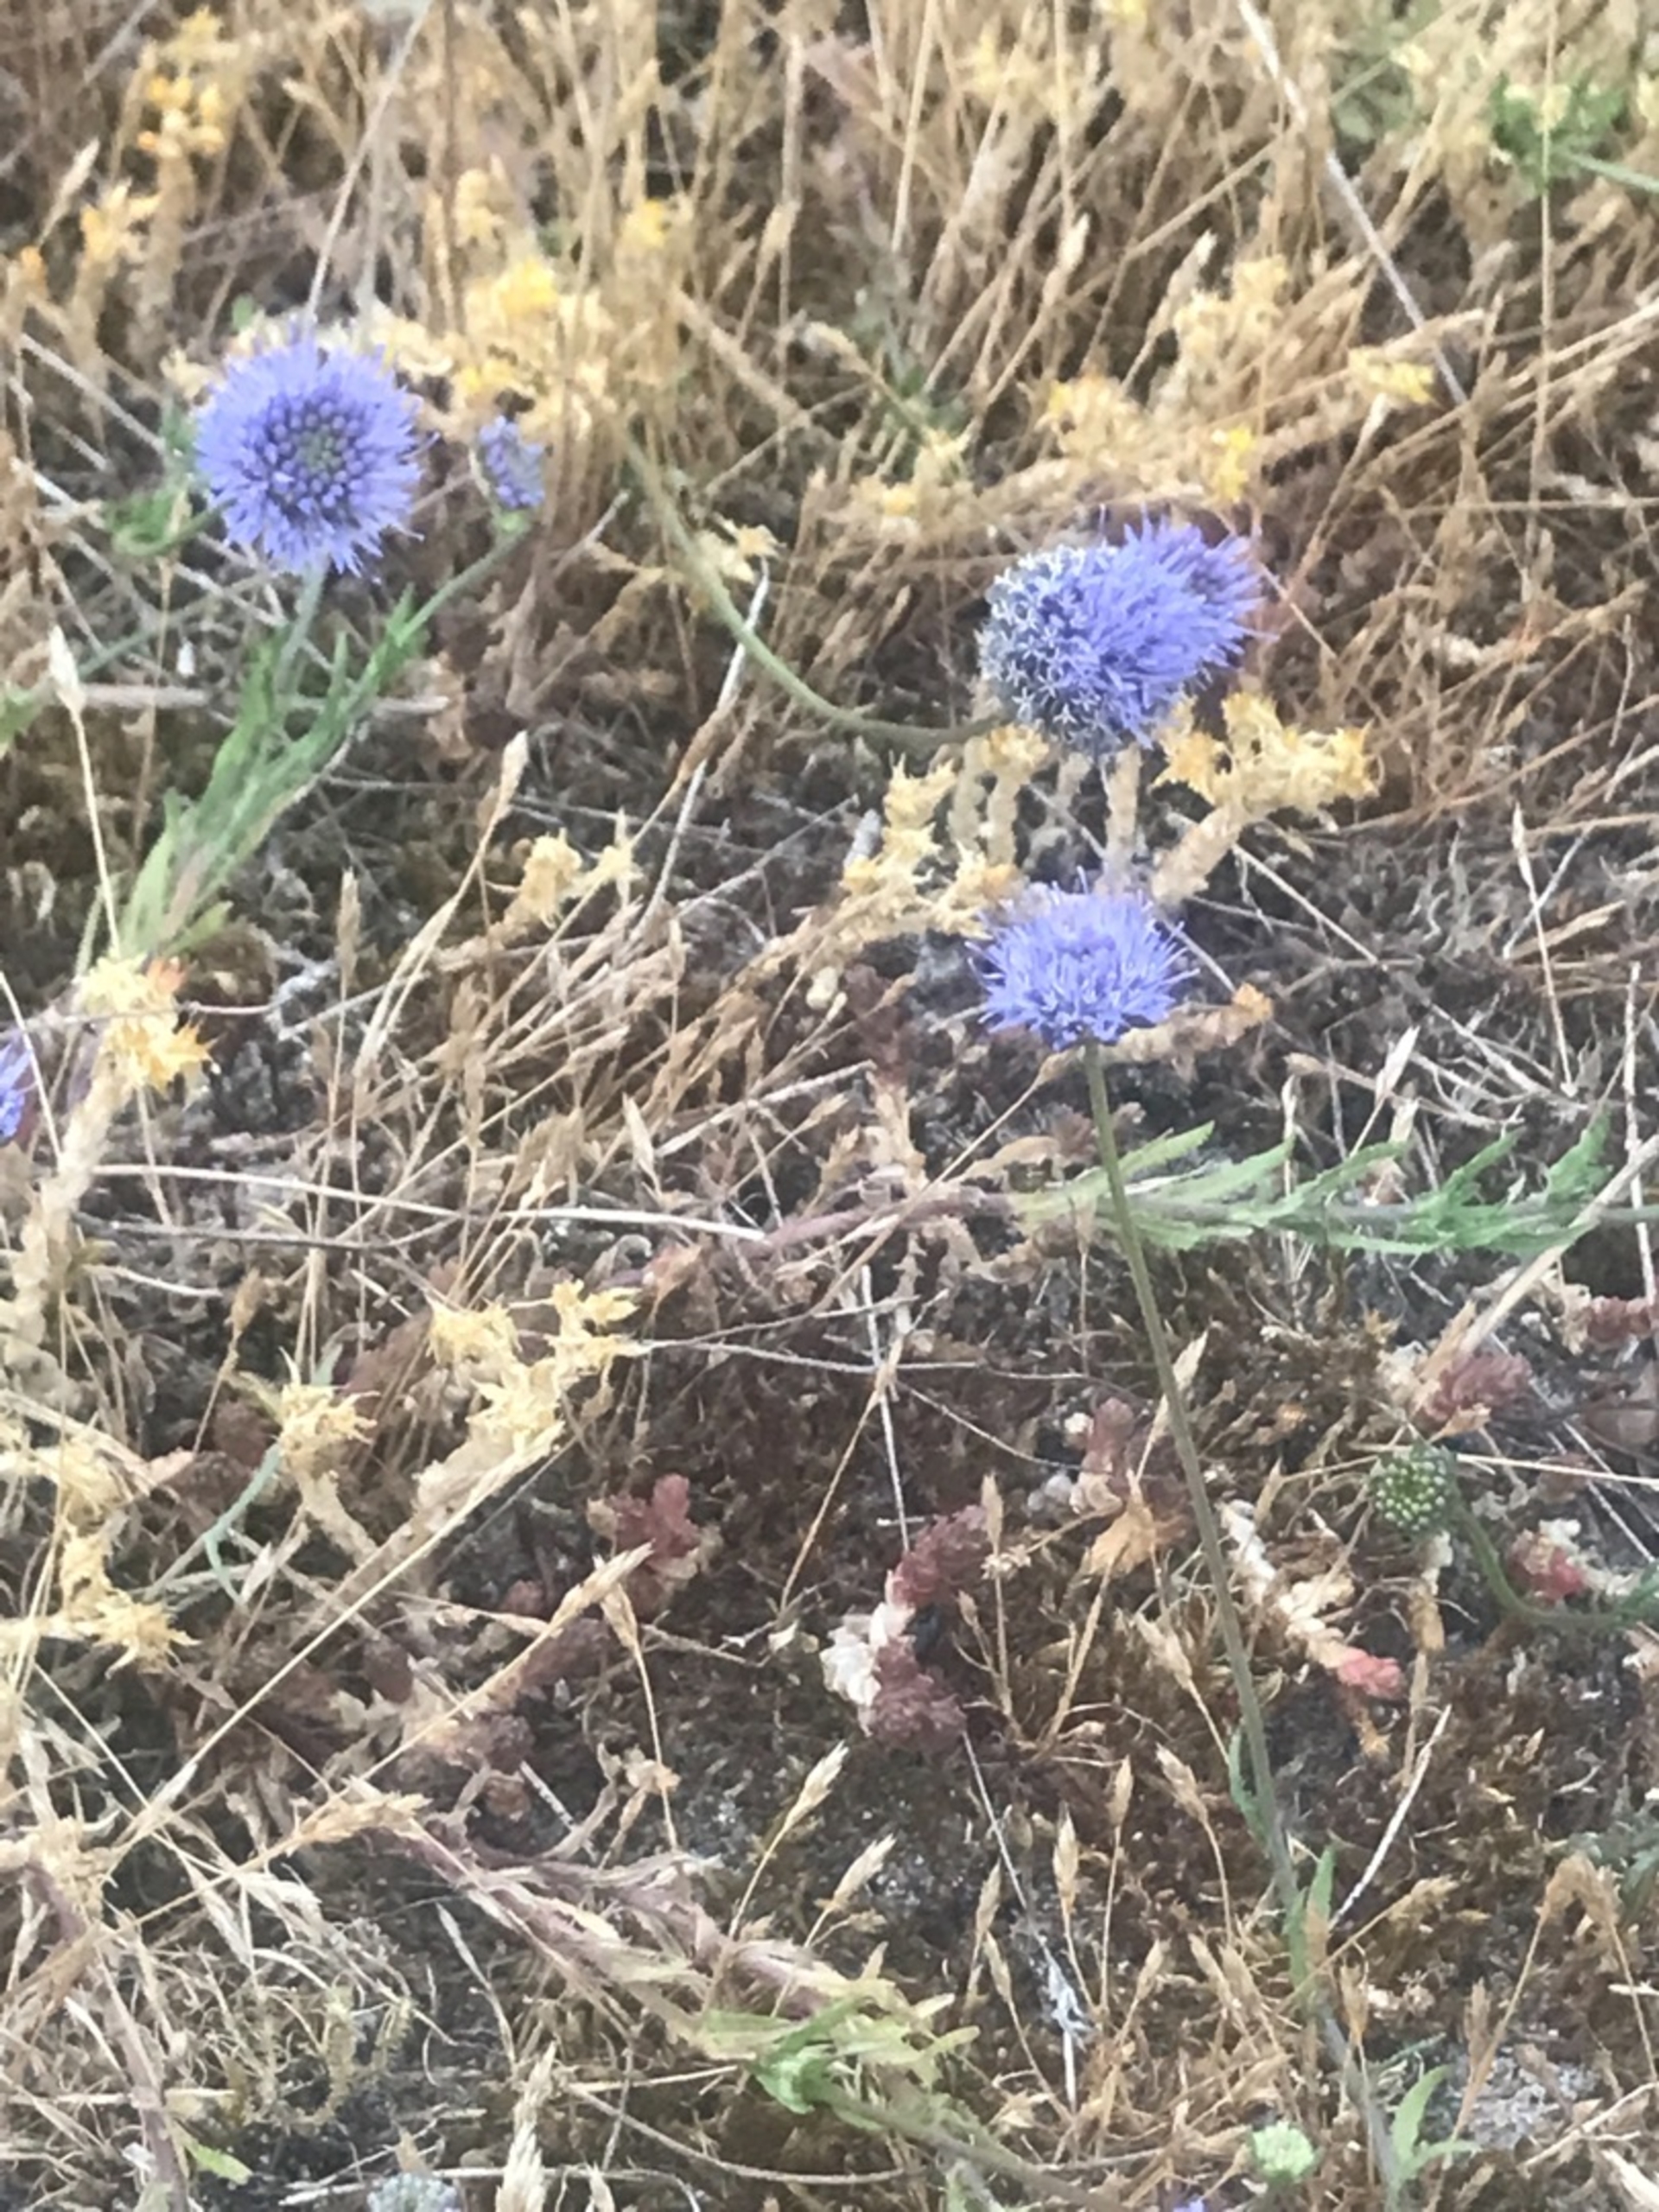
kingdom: Plantae
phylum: Tracheophyta
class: Magnoliopsida
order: Asterales
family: Campanulaceae
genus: Jasione
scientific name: Jasione montana
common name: Blåmunke
